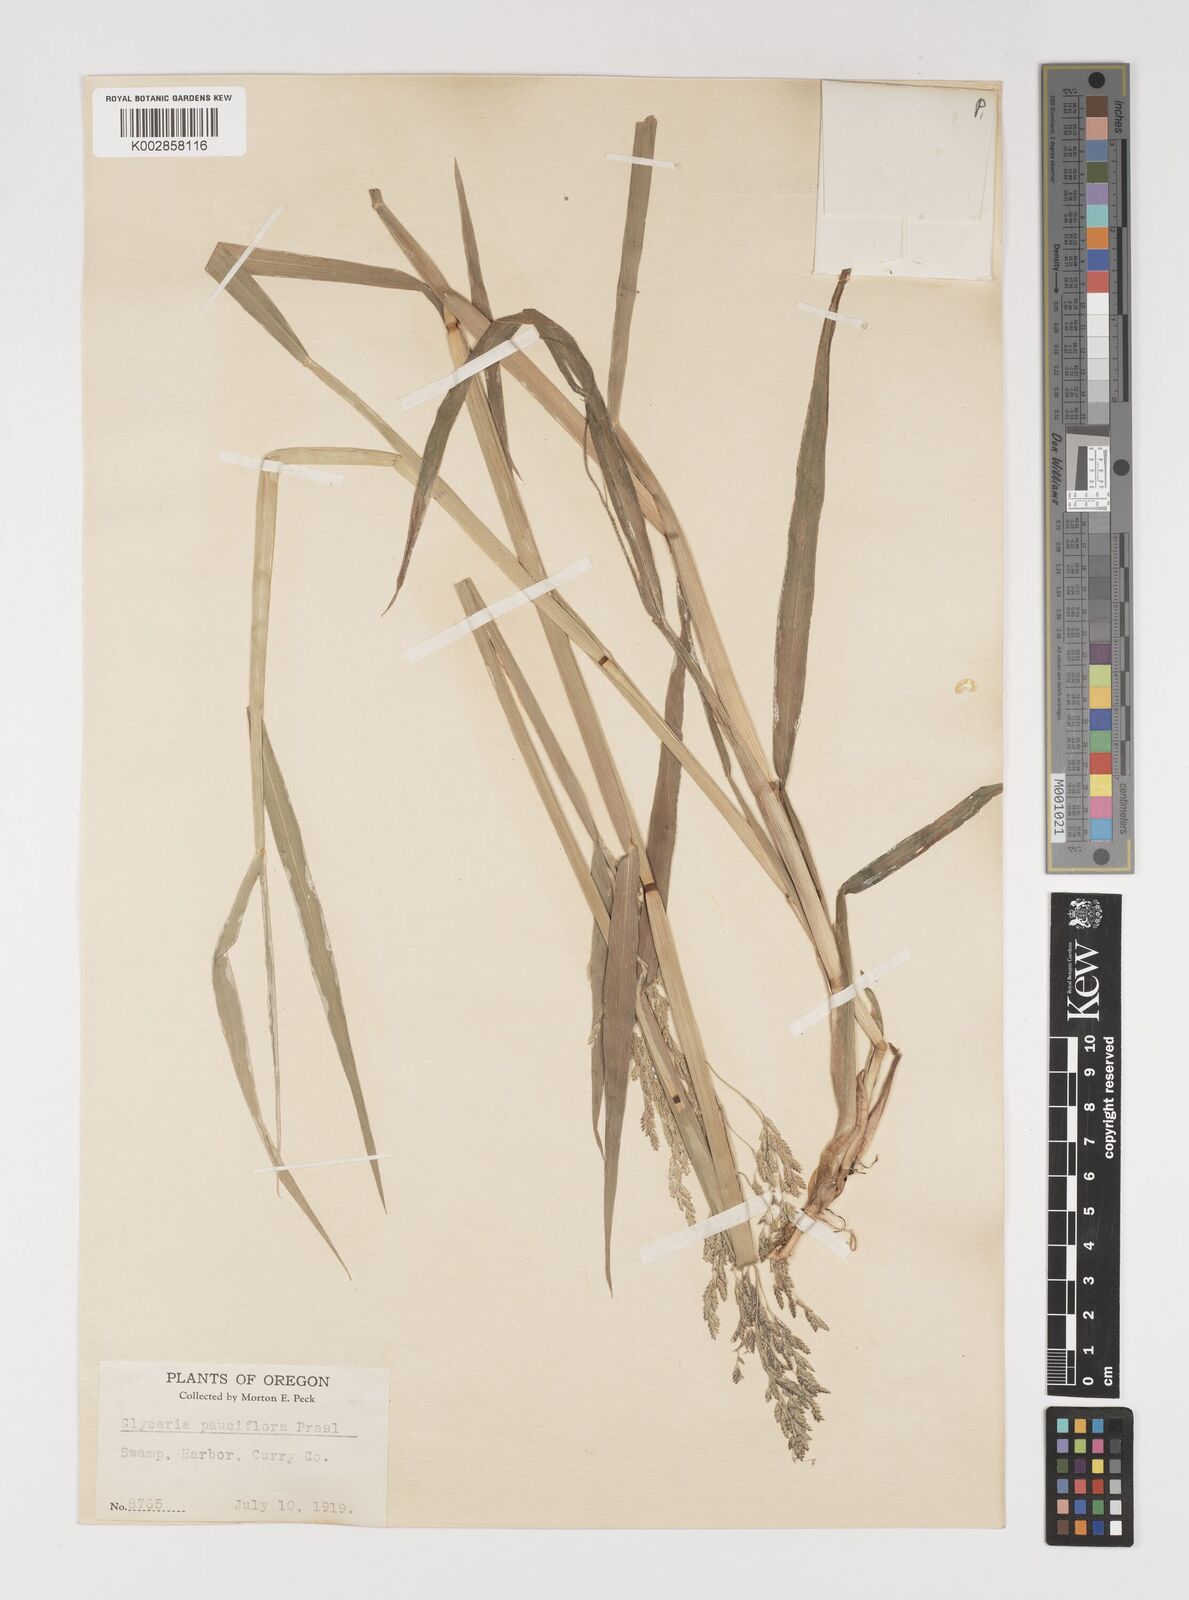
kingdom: Plantae
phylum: Tracheophyta
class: Liliopsida
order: Poales
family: Poaceae
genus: Torreyochloa
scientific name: Torreyochloa pallida
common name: Pale false mannagrass
